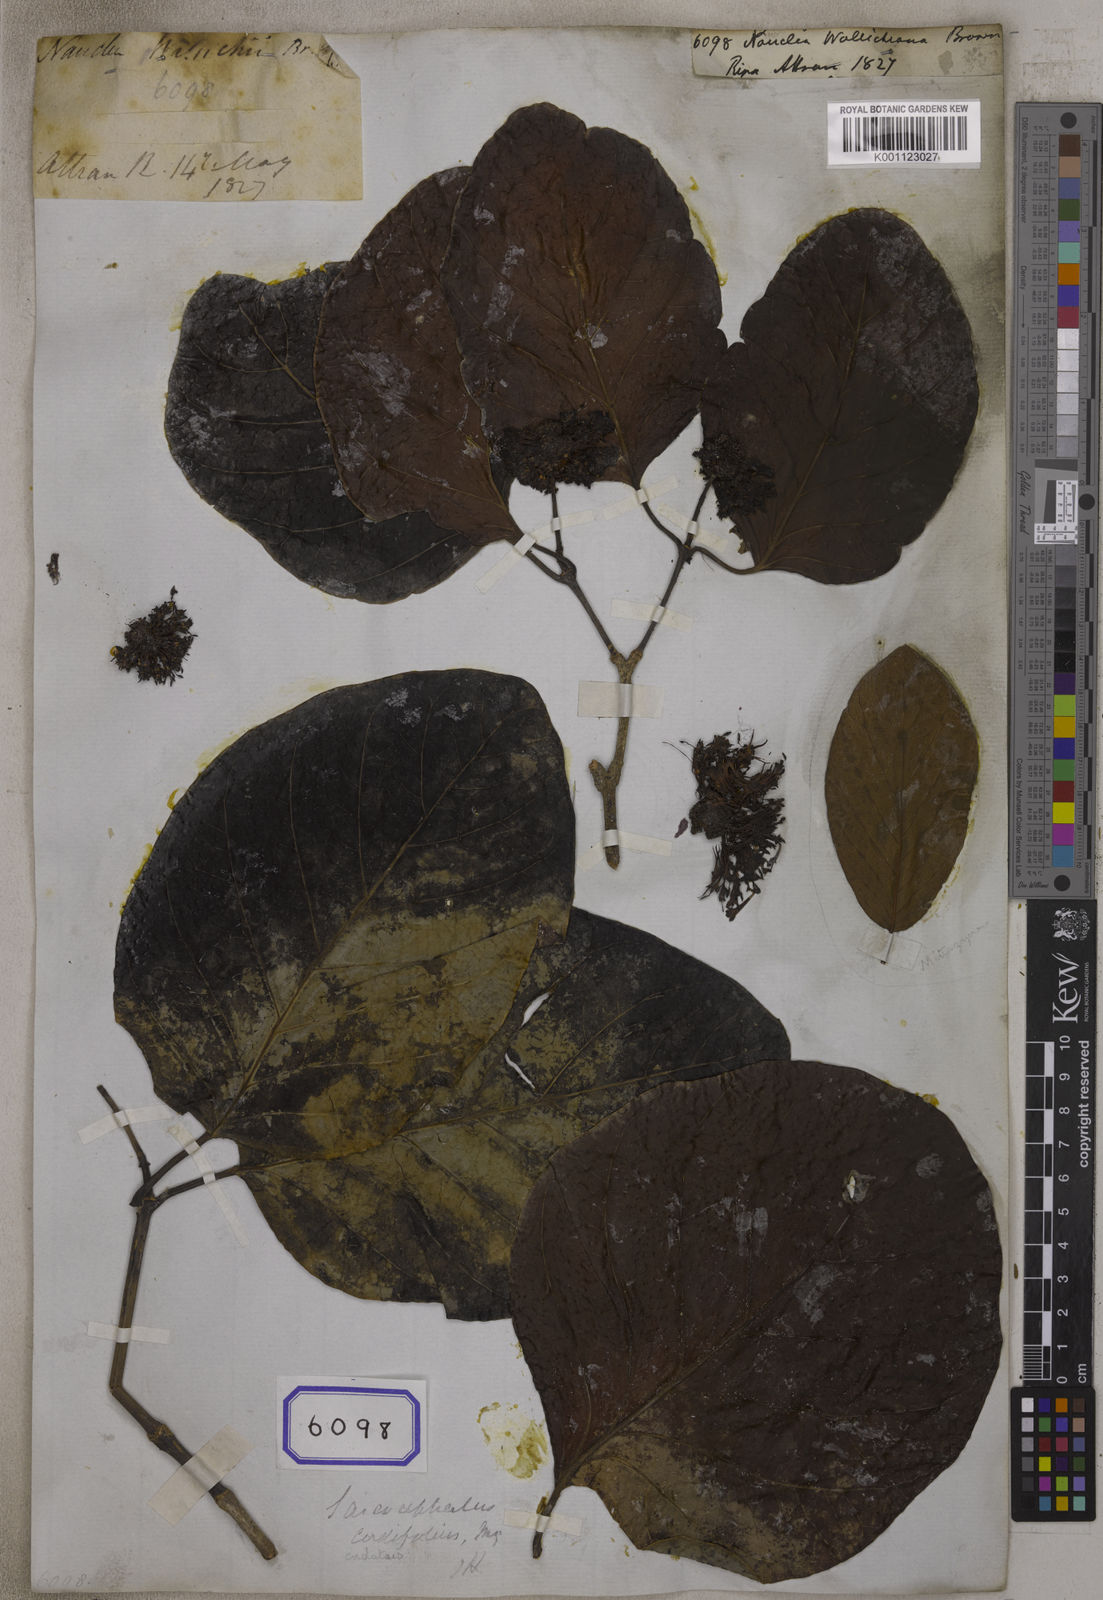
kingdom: Plantae
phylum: Tracheophyta
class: Magnoliopsida
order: Gentianales
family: Rubiaceae
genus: Nauclea
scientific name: Nauclea
